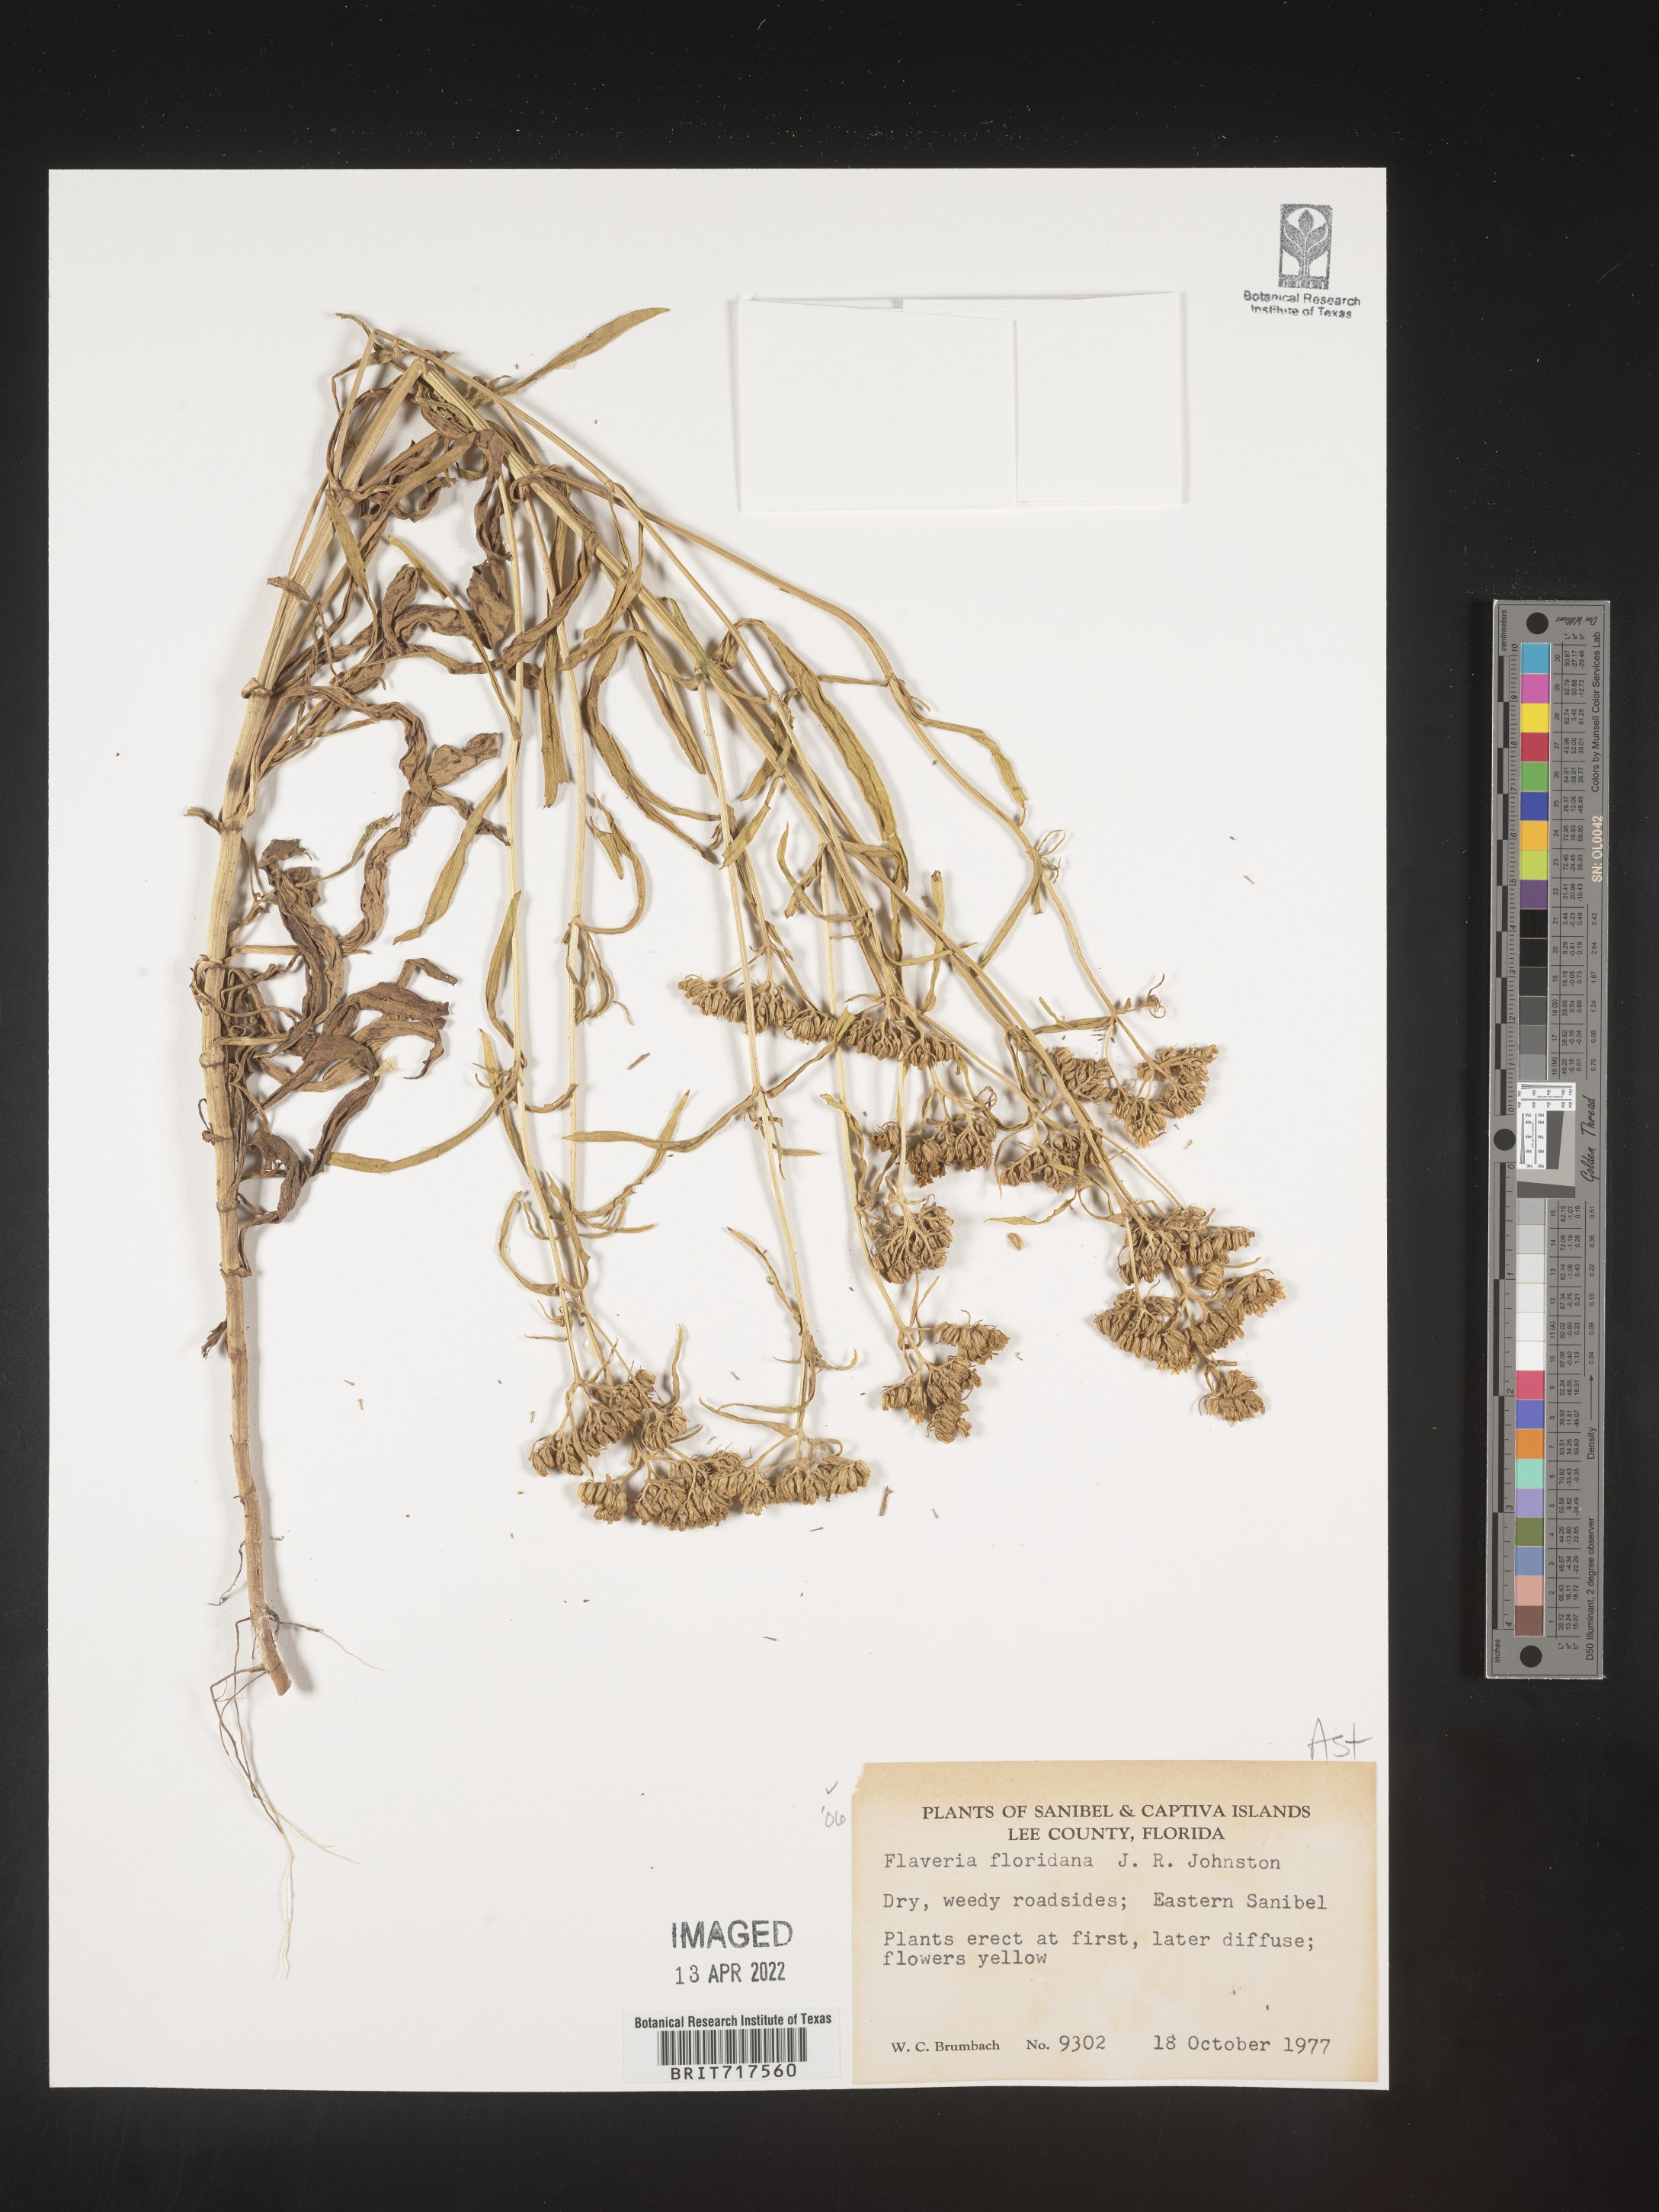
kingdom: Plantae
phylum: Tracheophyta
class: Magnoliopsida
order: Asterales
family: Asteraceae
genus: Flaveria
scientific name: Flaveria floridana
